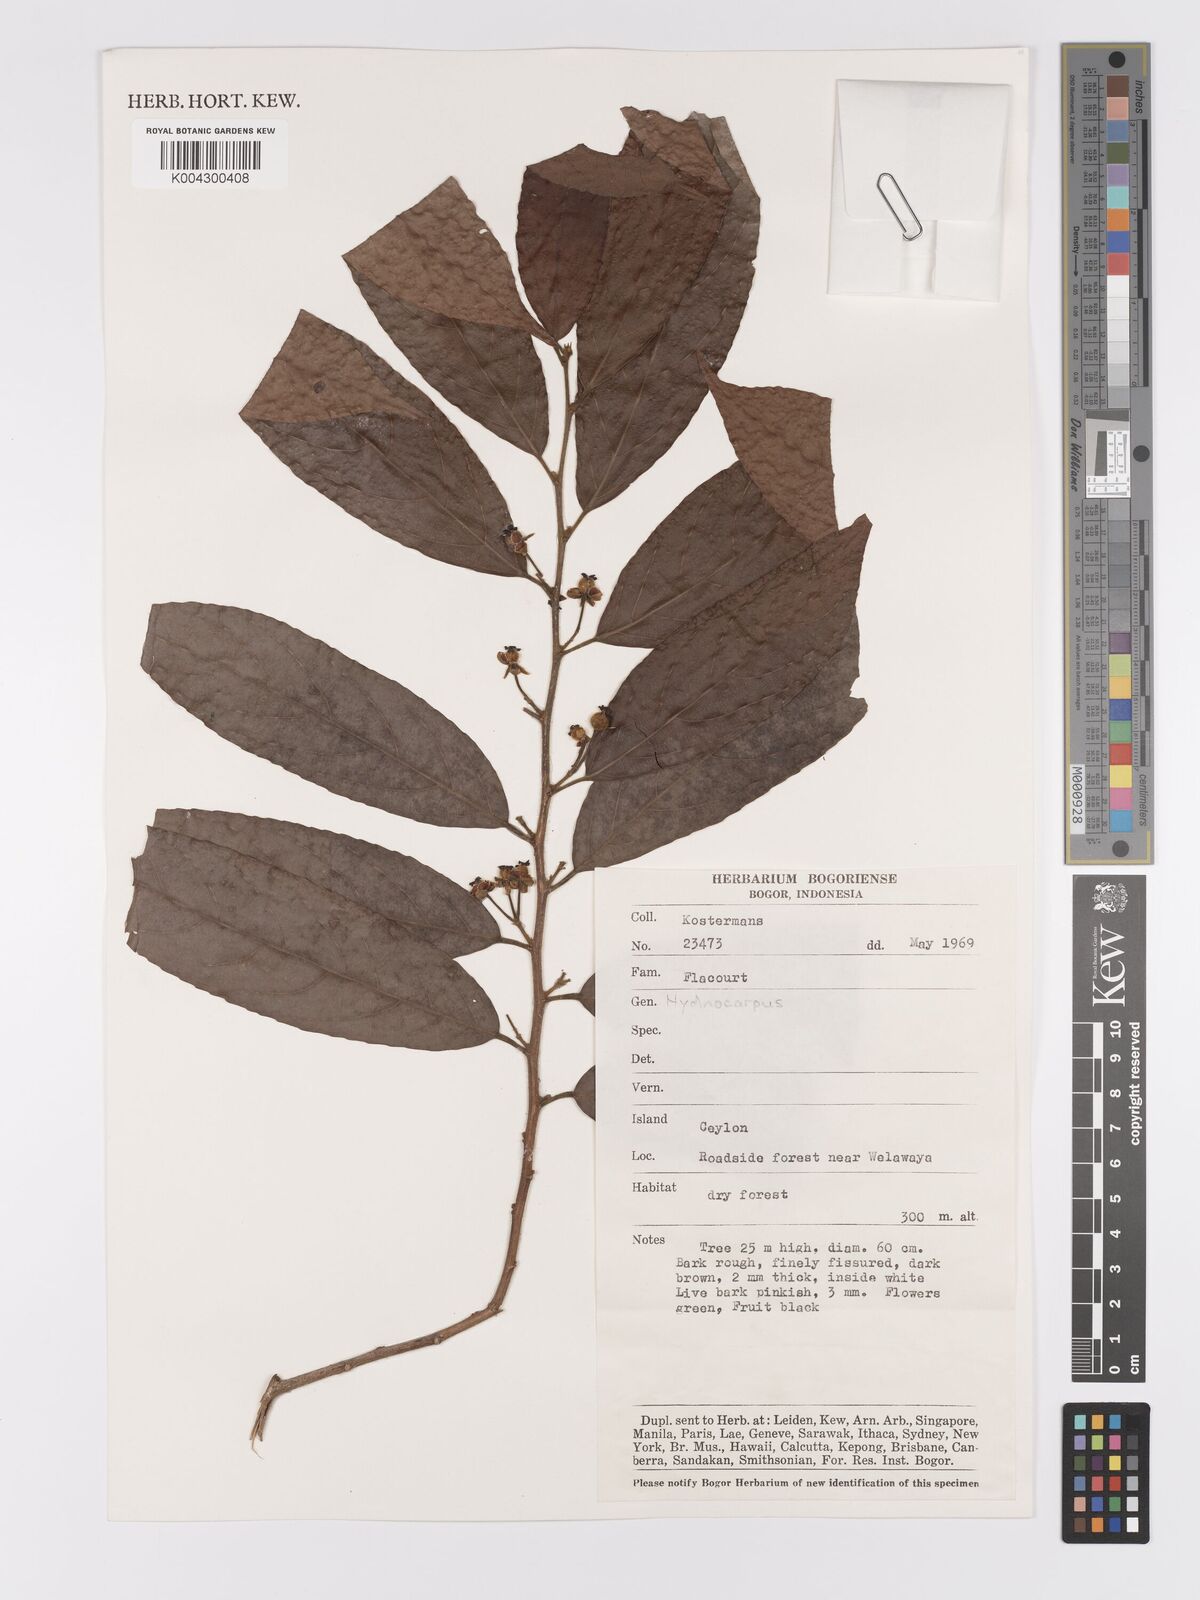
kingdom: Plantae
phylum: Tracheophyta
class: Magnoliopsida
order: Malpighiales
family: Achariaceae
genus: Hydnocarpus
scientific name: Hydnocarpus
